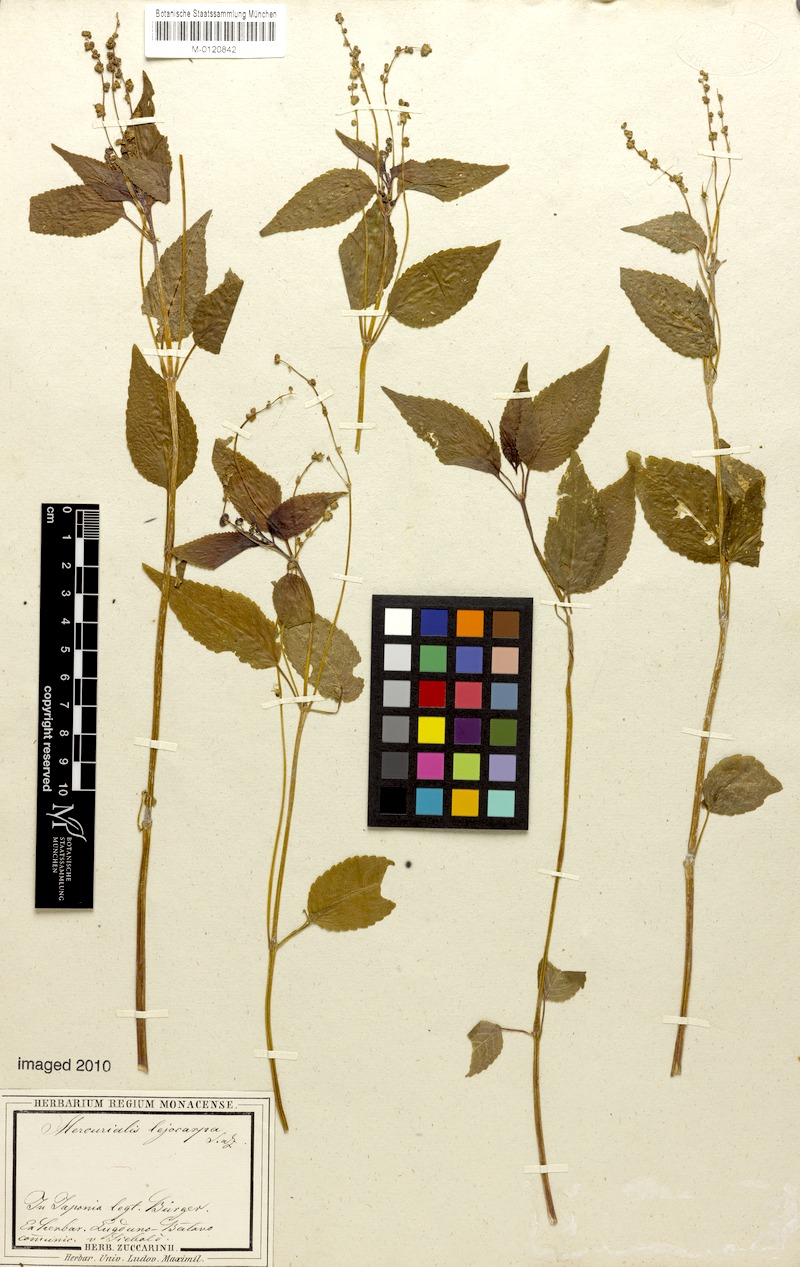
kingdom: Plantae
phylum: Tracheophyta
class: Magnoliopsida
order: Malpighiales
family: Euphorbiaceae
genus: Mercurialis
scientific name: Mercurialis leiocarpa
